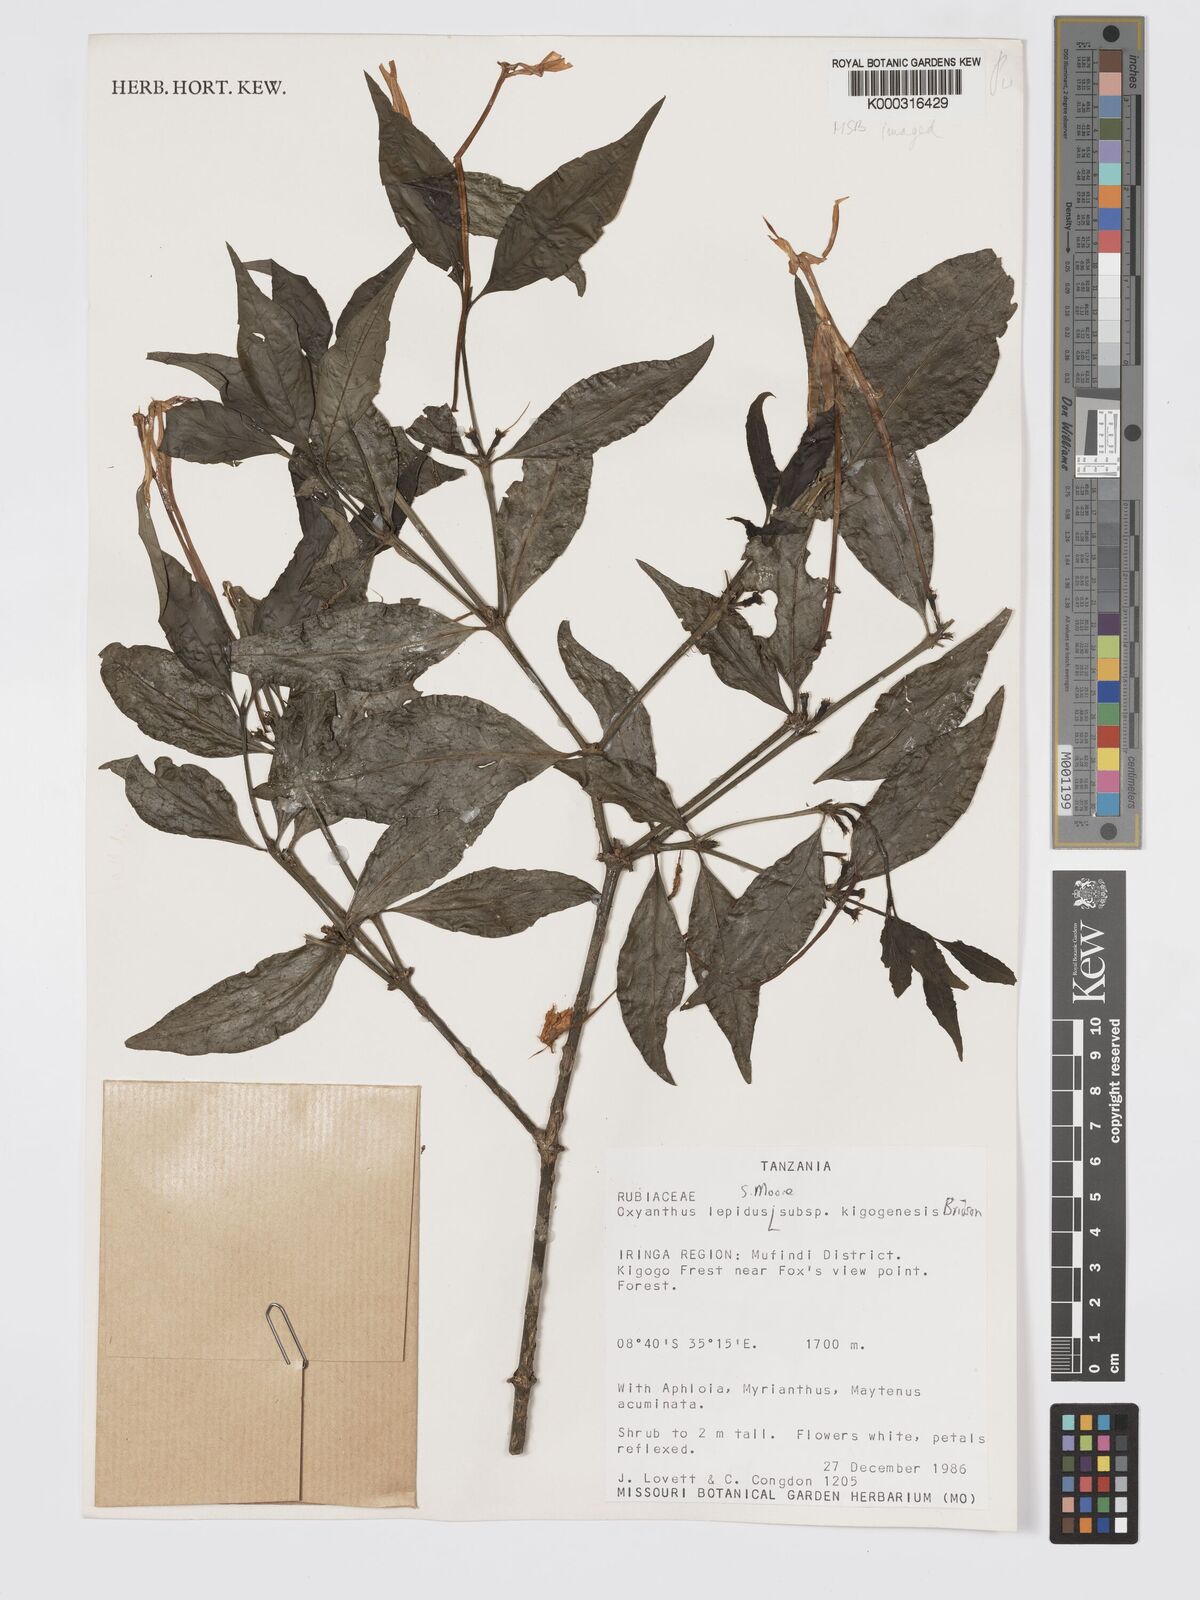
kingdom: Plantae
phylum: Tracheophyta
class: Magnoliopsida
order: Gentianales
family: Rubiaceae
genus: Oxyanthus
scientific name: Oxyanthus lepidus
